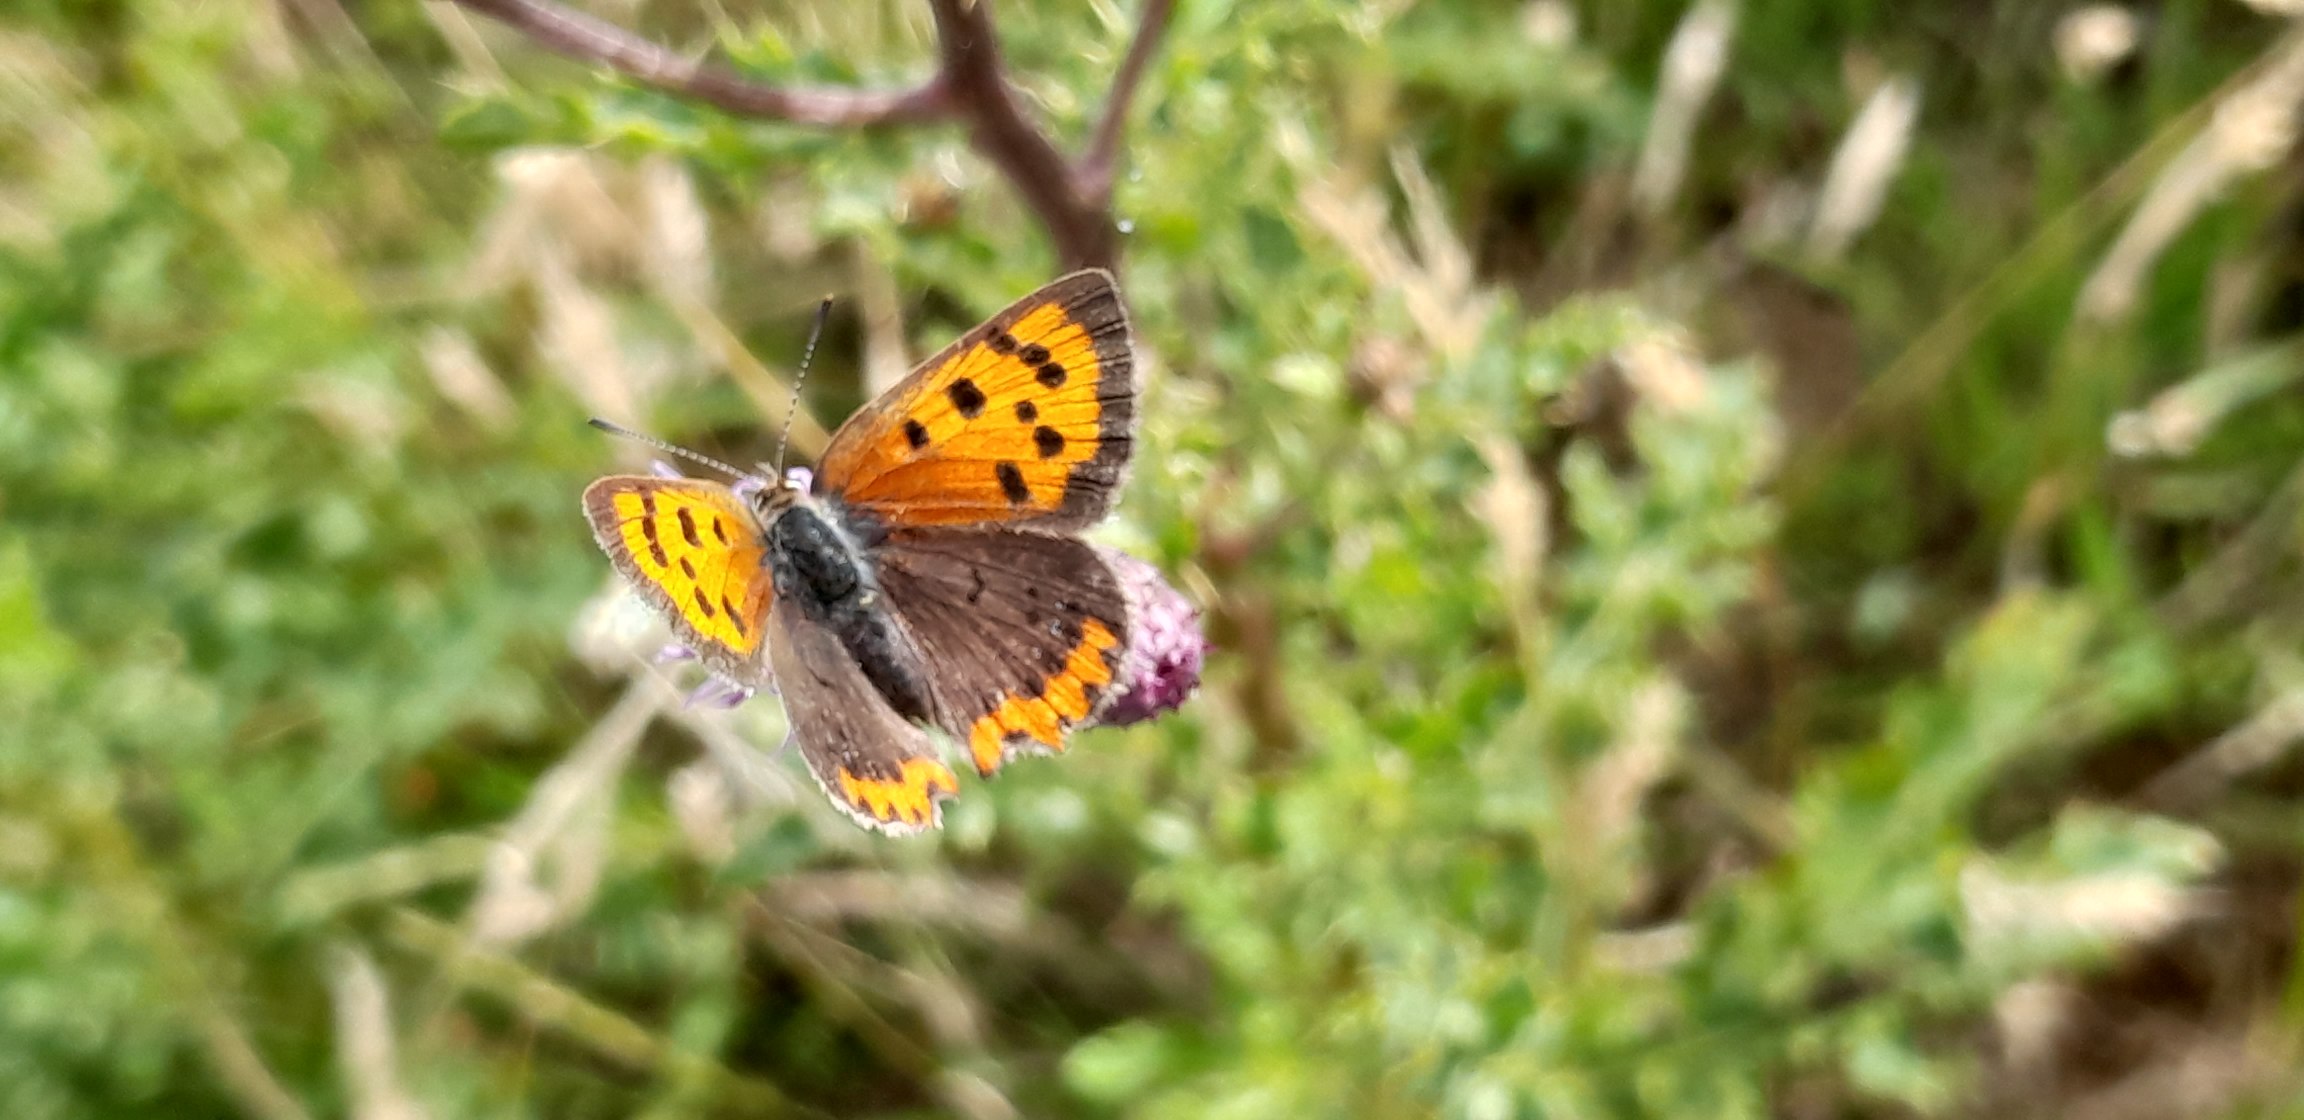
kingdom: Animalia
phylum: Arthropoda
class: Insecta
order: Lepidoptera
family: Lycaenidae
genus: Lycaena
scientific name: Lycaena phlaeas
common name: Lille ildfugl
